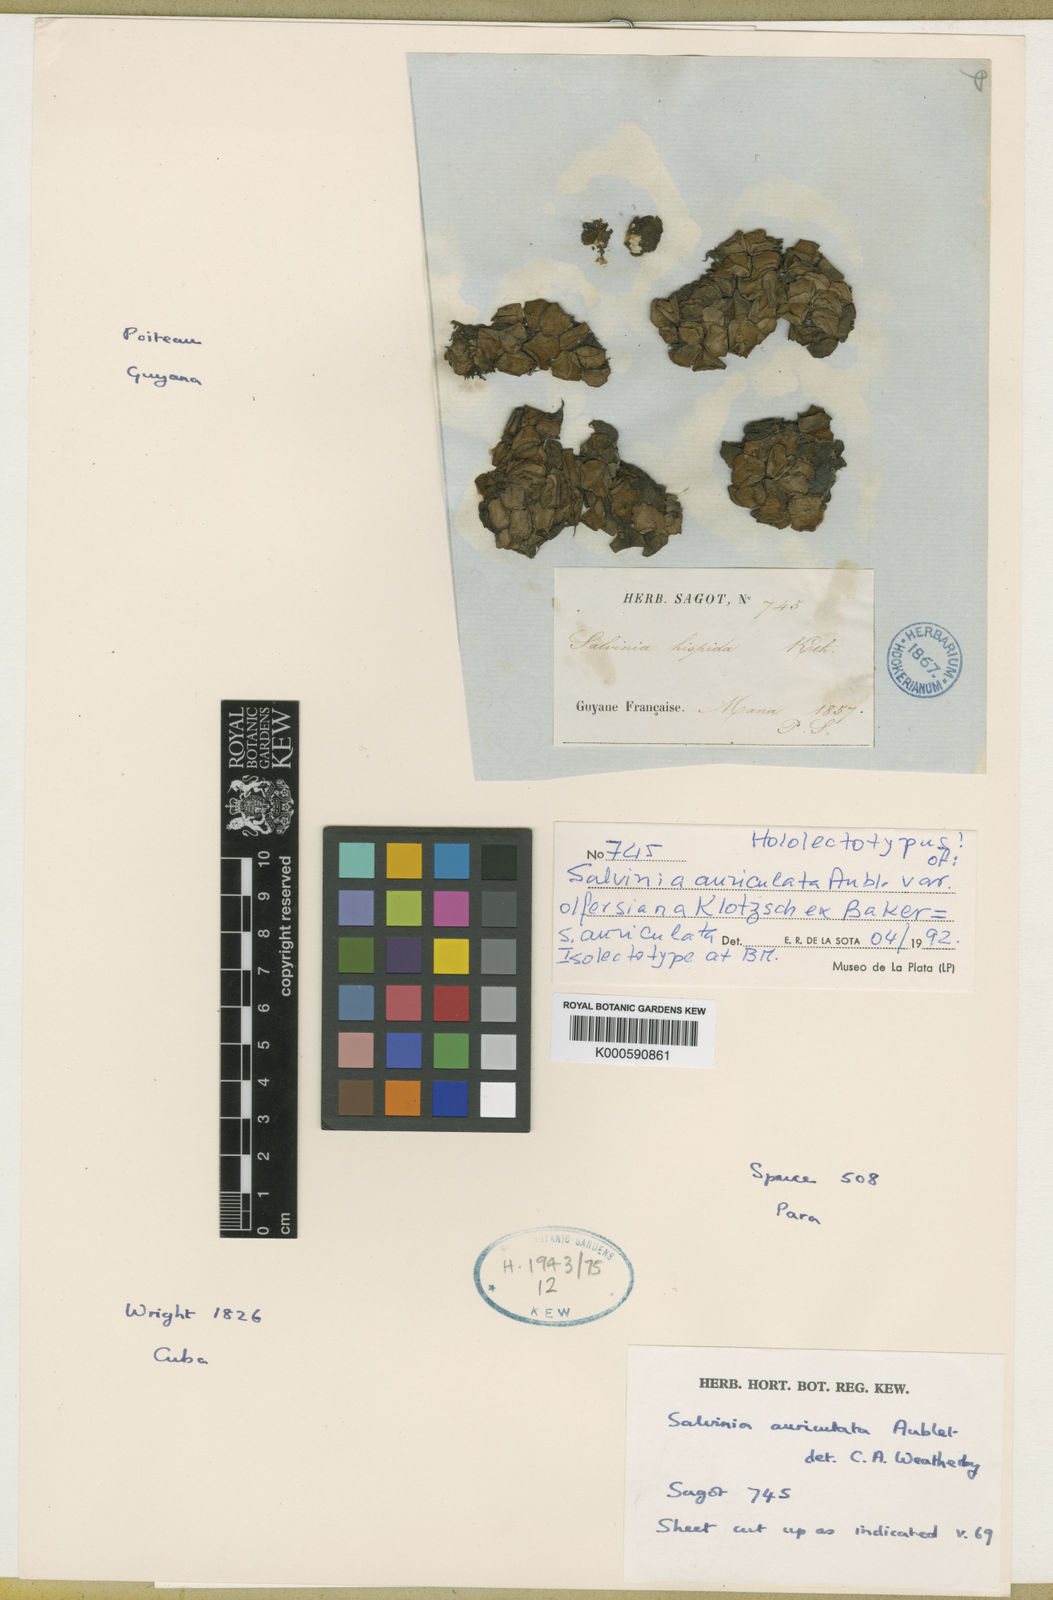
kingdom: Plantae
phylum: Tracheophyta
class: Polypodiopsida
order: Salviniales
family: Salviniaceae
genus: Salvinia
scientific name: Salvinia auriculata
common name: African payal
